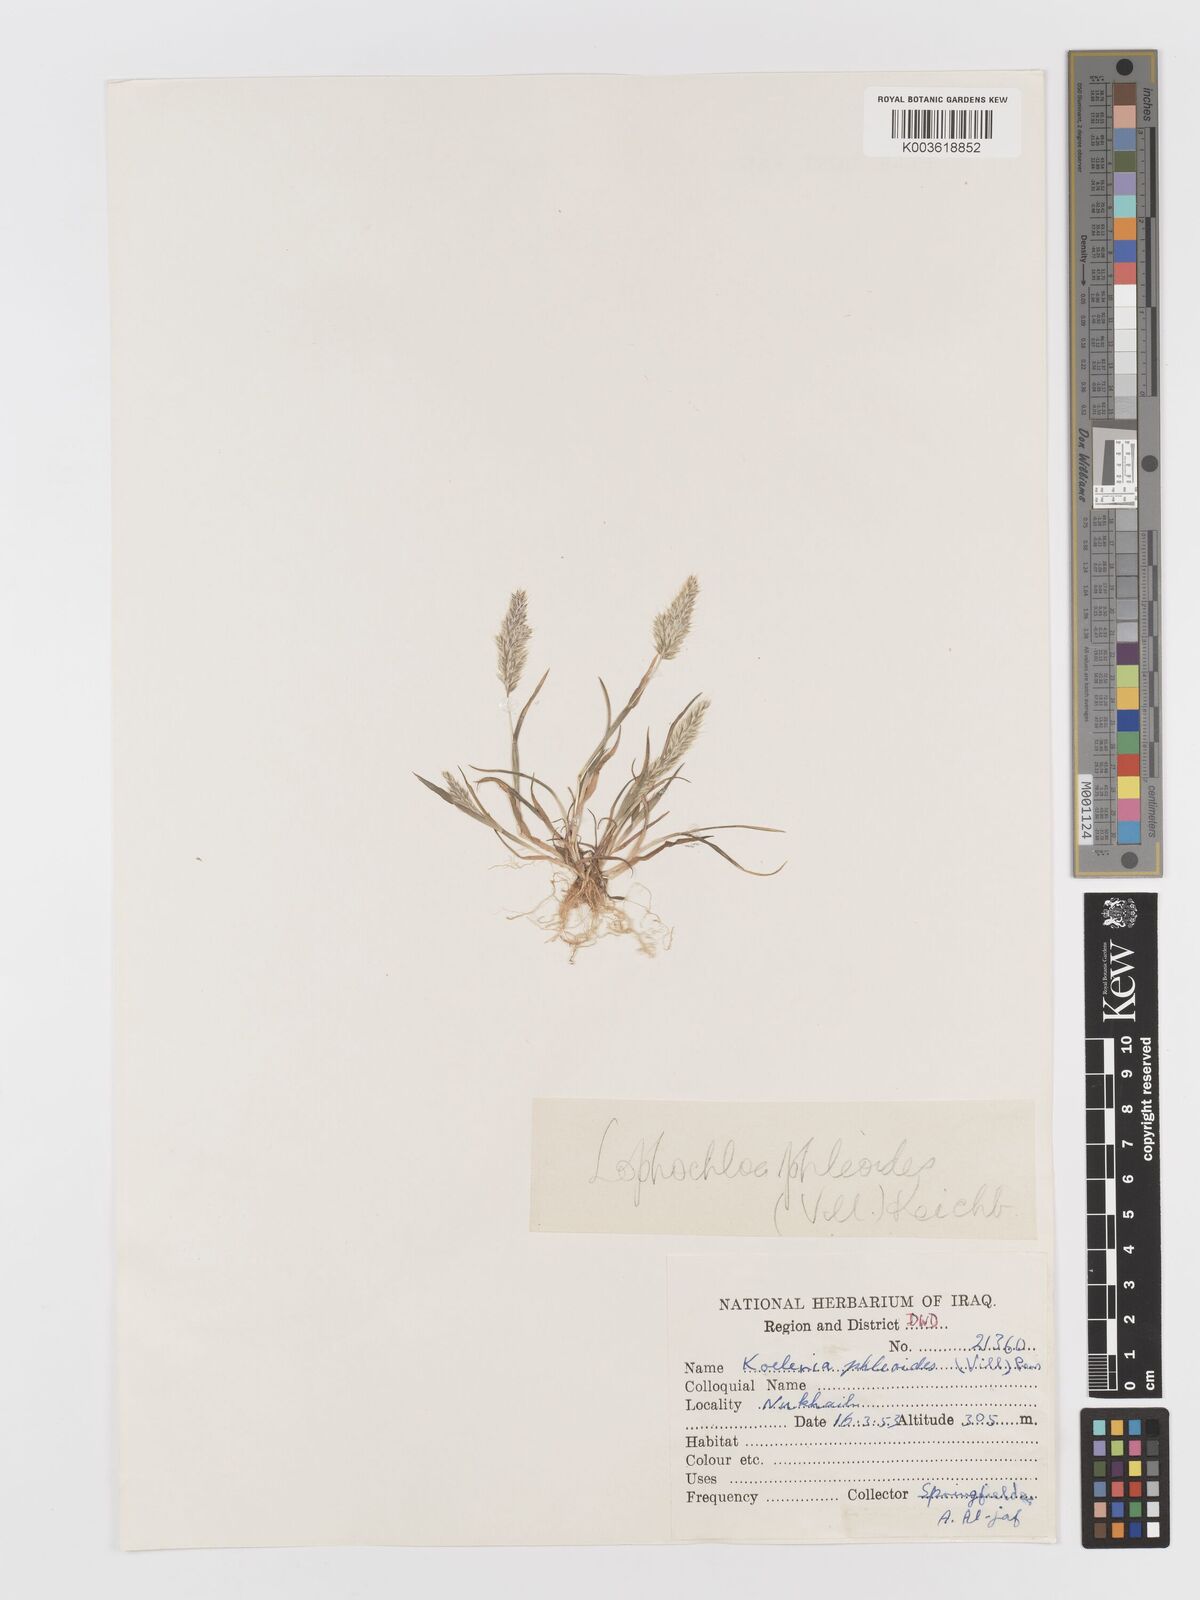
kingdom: Plantae
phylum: Tracheophyta
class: Liliopsida
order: Poales
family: Poaceae
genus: Rostraria
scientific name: Rostraria cristata
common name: Mediterranean hair-grass
